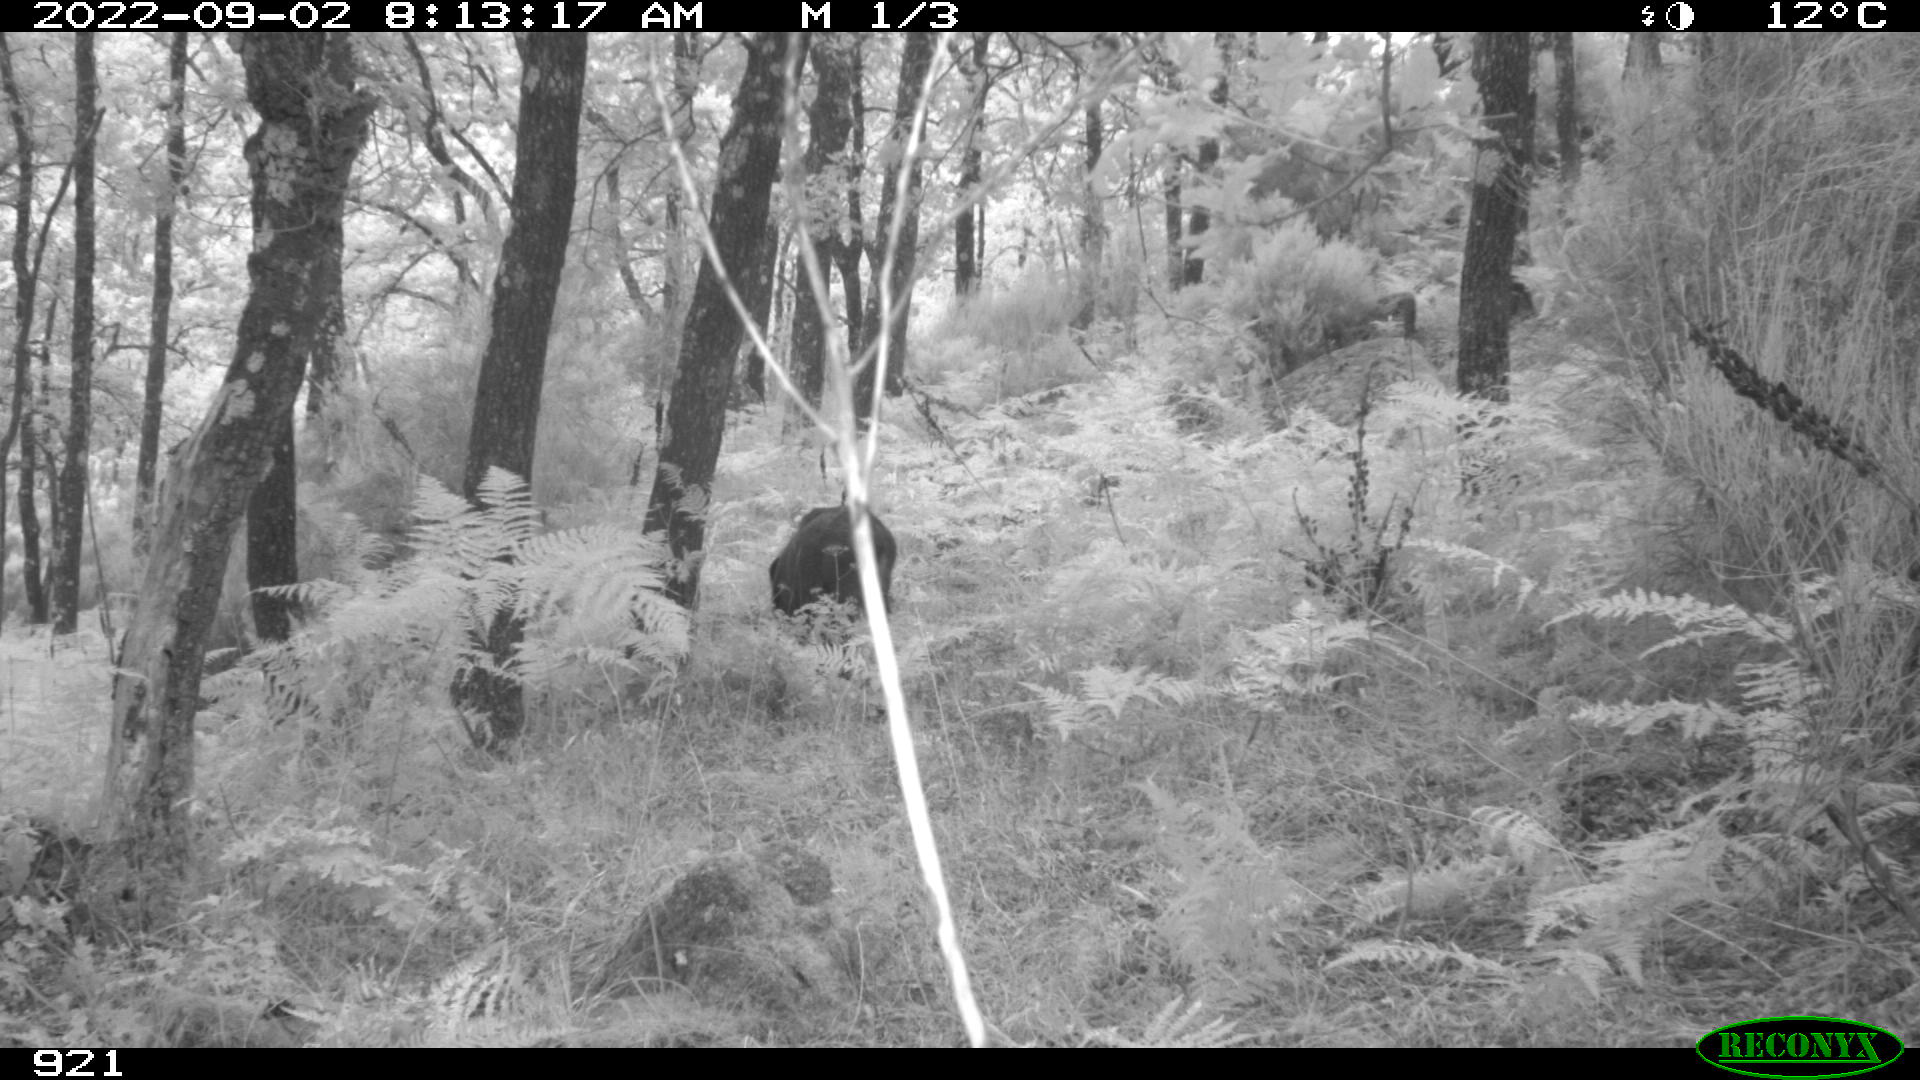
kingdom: Animalia
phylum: Chordata
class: Mammalia
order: Artiodactyla
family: Suidae
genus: Sus
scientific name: Sus scrofa
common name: Wild boar
